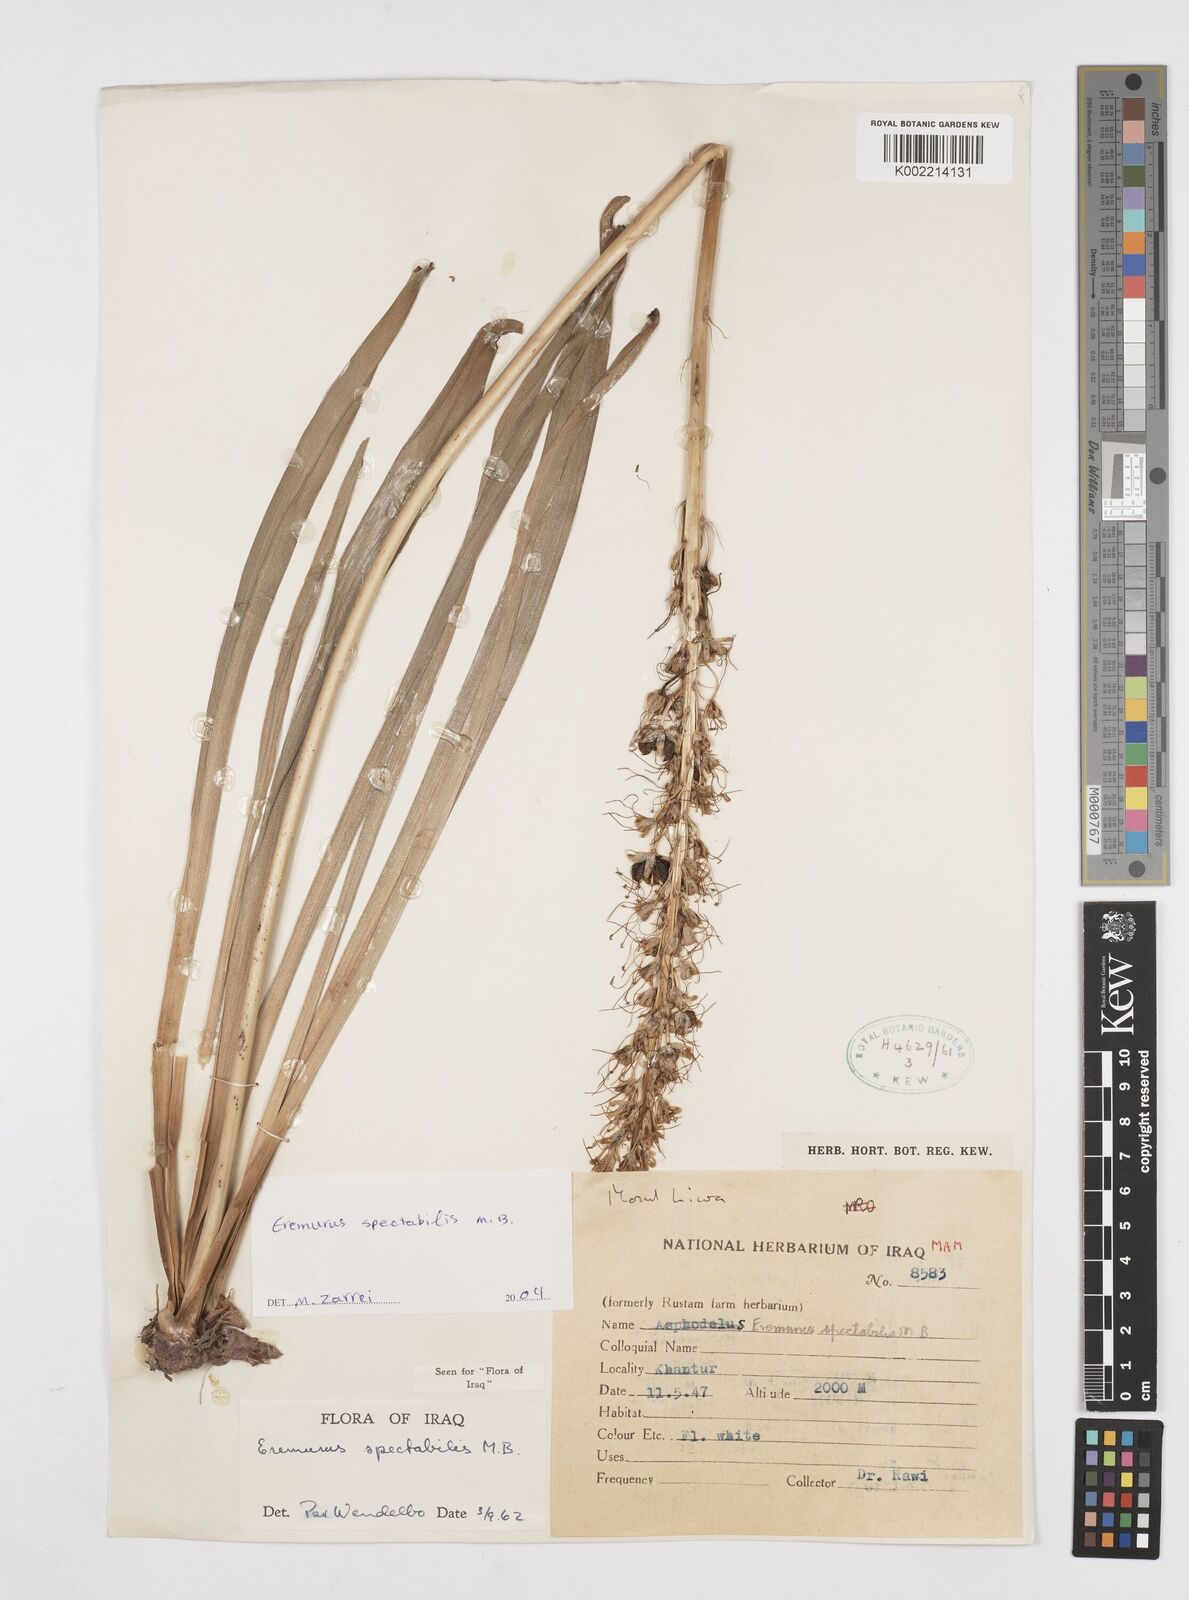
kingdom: Plantae
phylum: Tracheophyta
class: Liliopsida
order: Asparagales
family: Asphodelaceae
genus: Eremurus
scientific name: Eremurus spectabilis
